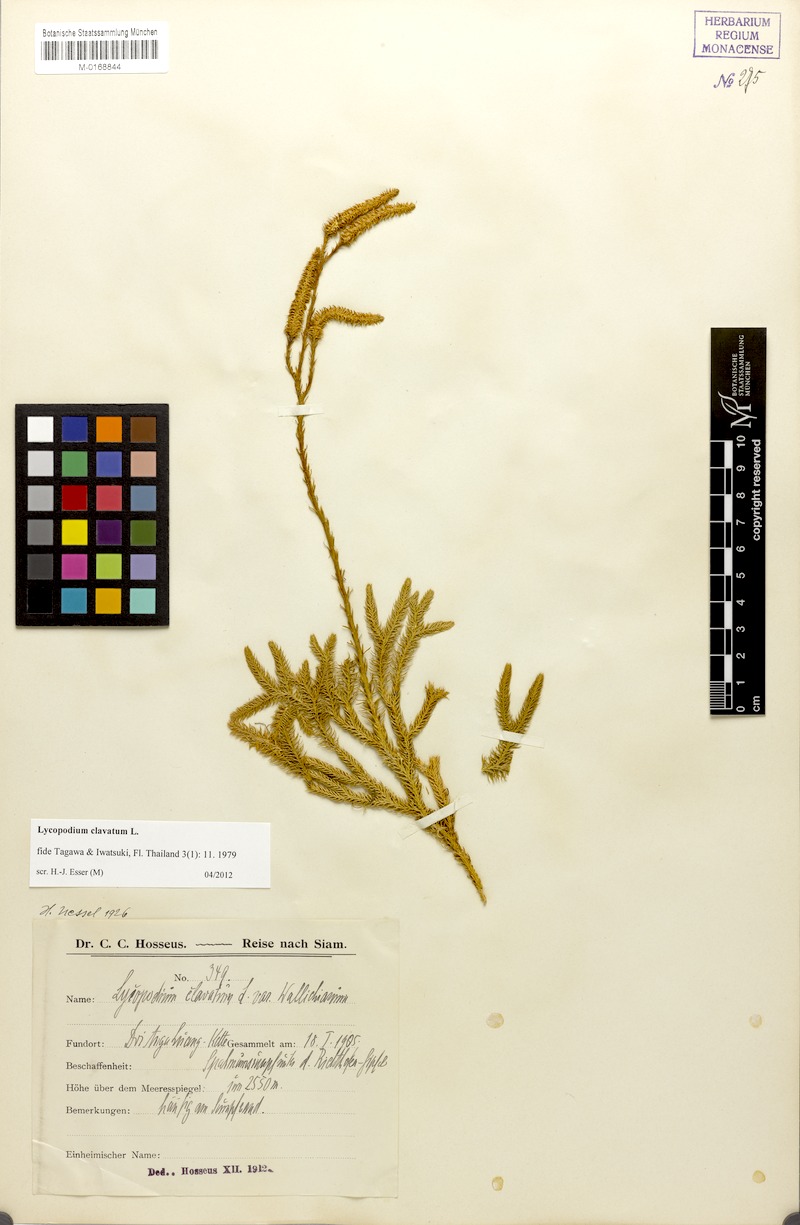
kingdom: Plantae
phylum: Tracheophyta
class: Lycopodiopsida
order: Lycopodiales
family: Lycopodiaceae
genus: Lycopodium
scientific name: Lycopodium clavatum
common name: Stag's-horn clubmoss
